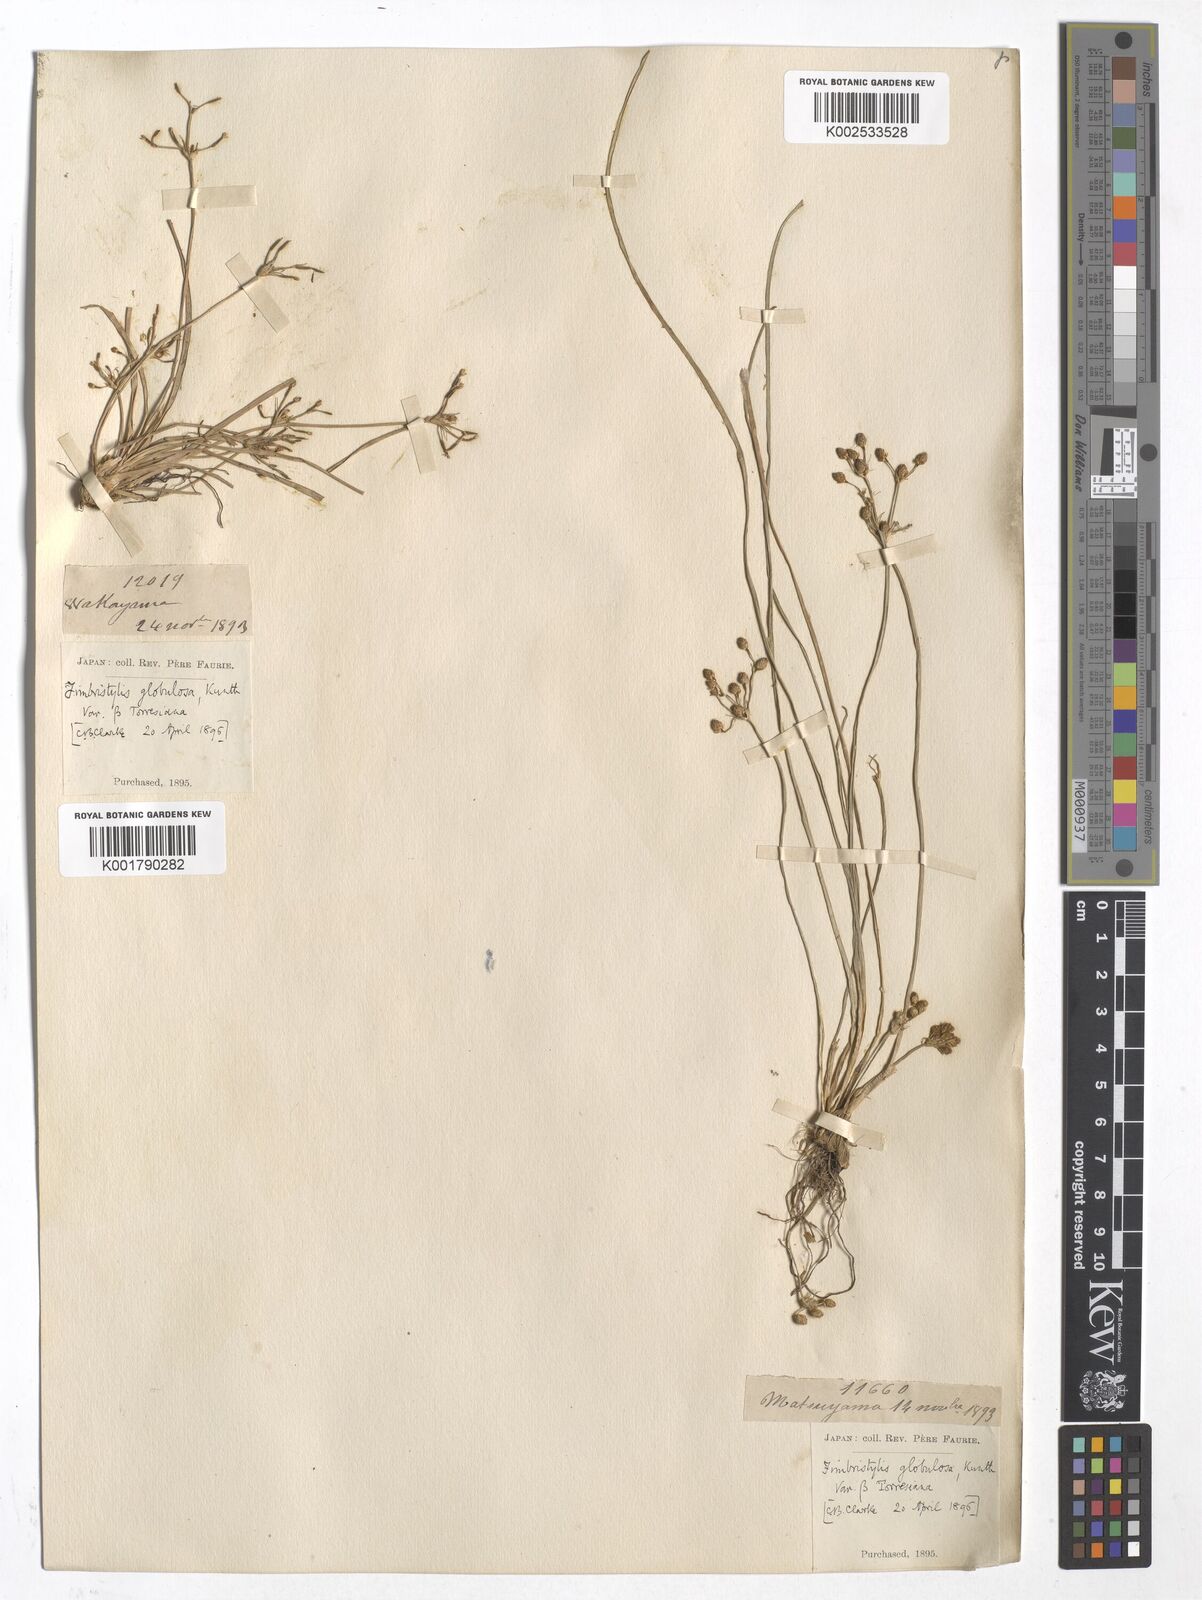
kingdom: Plantae
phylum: Tracheophyta
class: Liliopsida
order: Poales
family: Cyperaceae
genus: Fimbristylis
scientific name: Fimbristylis umbellaris
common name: Globular fimbristylis
